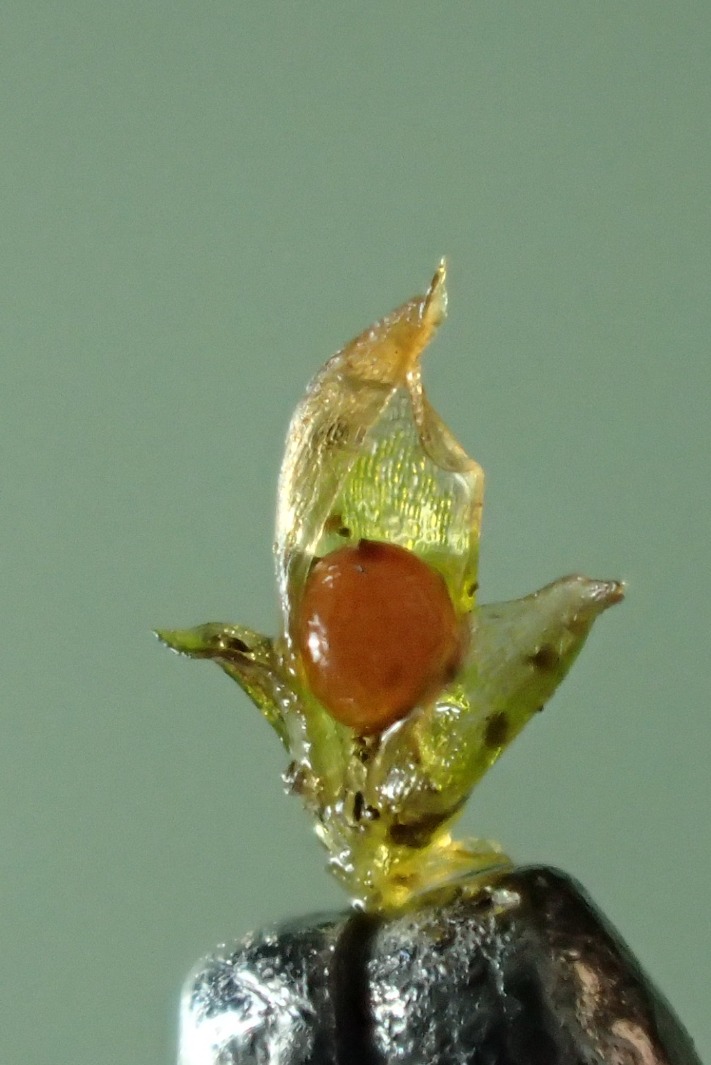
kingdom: Plantae
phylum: Bryophyta
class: Bryopsida
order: Pottiales
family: Pottiaceae
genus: Acaulon
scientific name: Acaulon muticum
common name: Siddende ægmos
